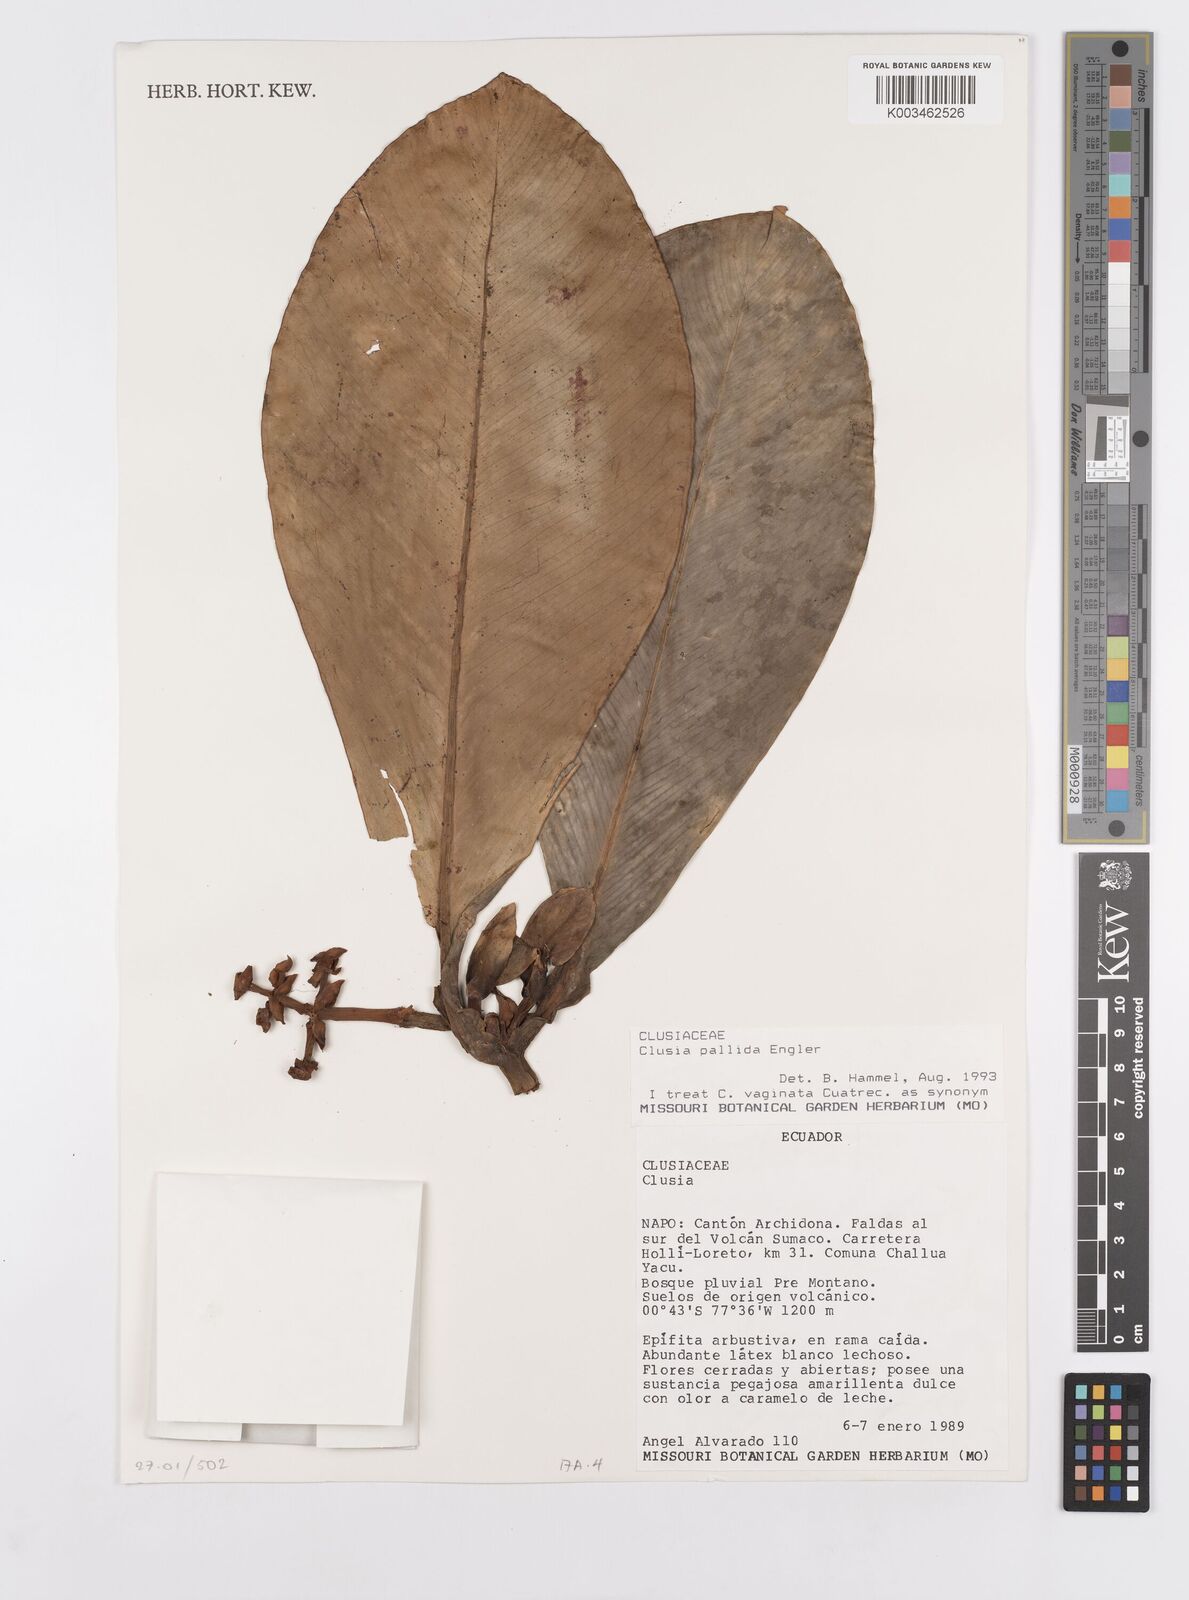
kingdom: Plantae
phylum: Tracheophyta
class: Magnoliopsida
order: Malpighiales
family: Clusiaceae
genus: Clusia
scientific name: Clusia pallida
